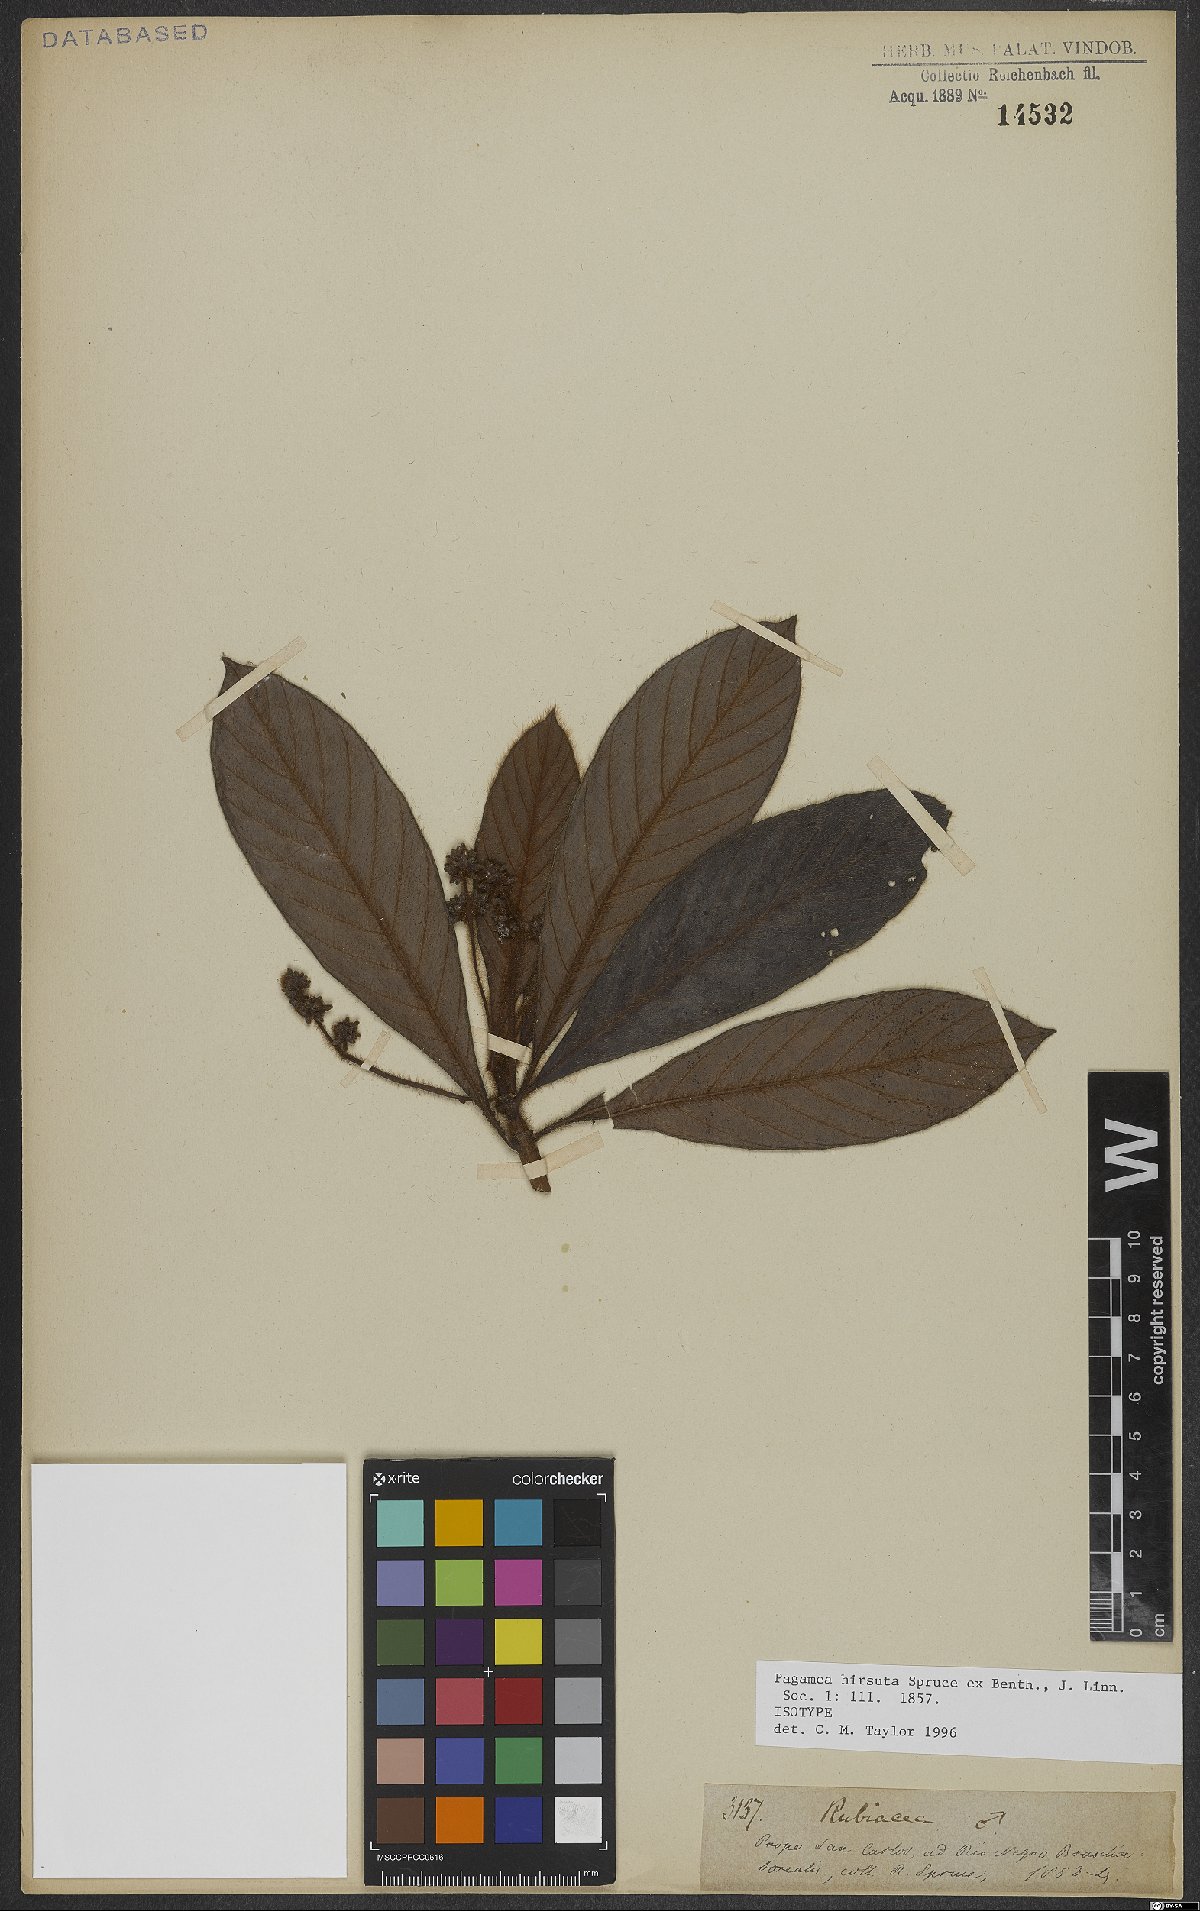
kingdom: Plantae
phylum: Tracheophyta
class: Magnoliopsida
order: Gentianales
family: Rubiaceae
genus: Pagamea
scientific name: Pagamea hirsuta
